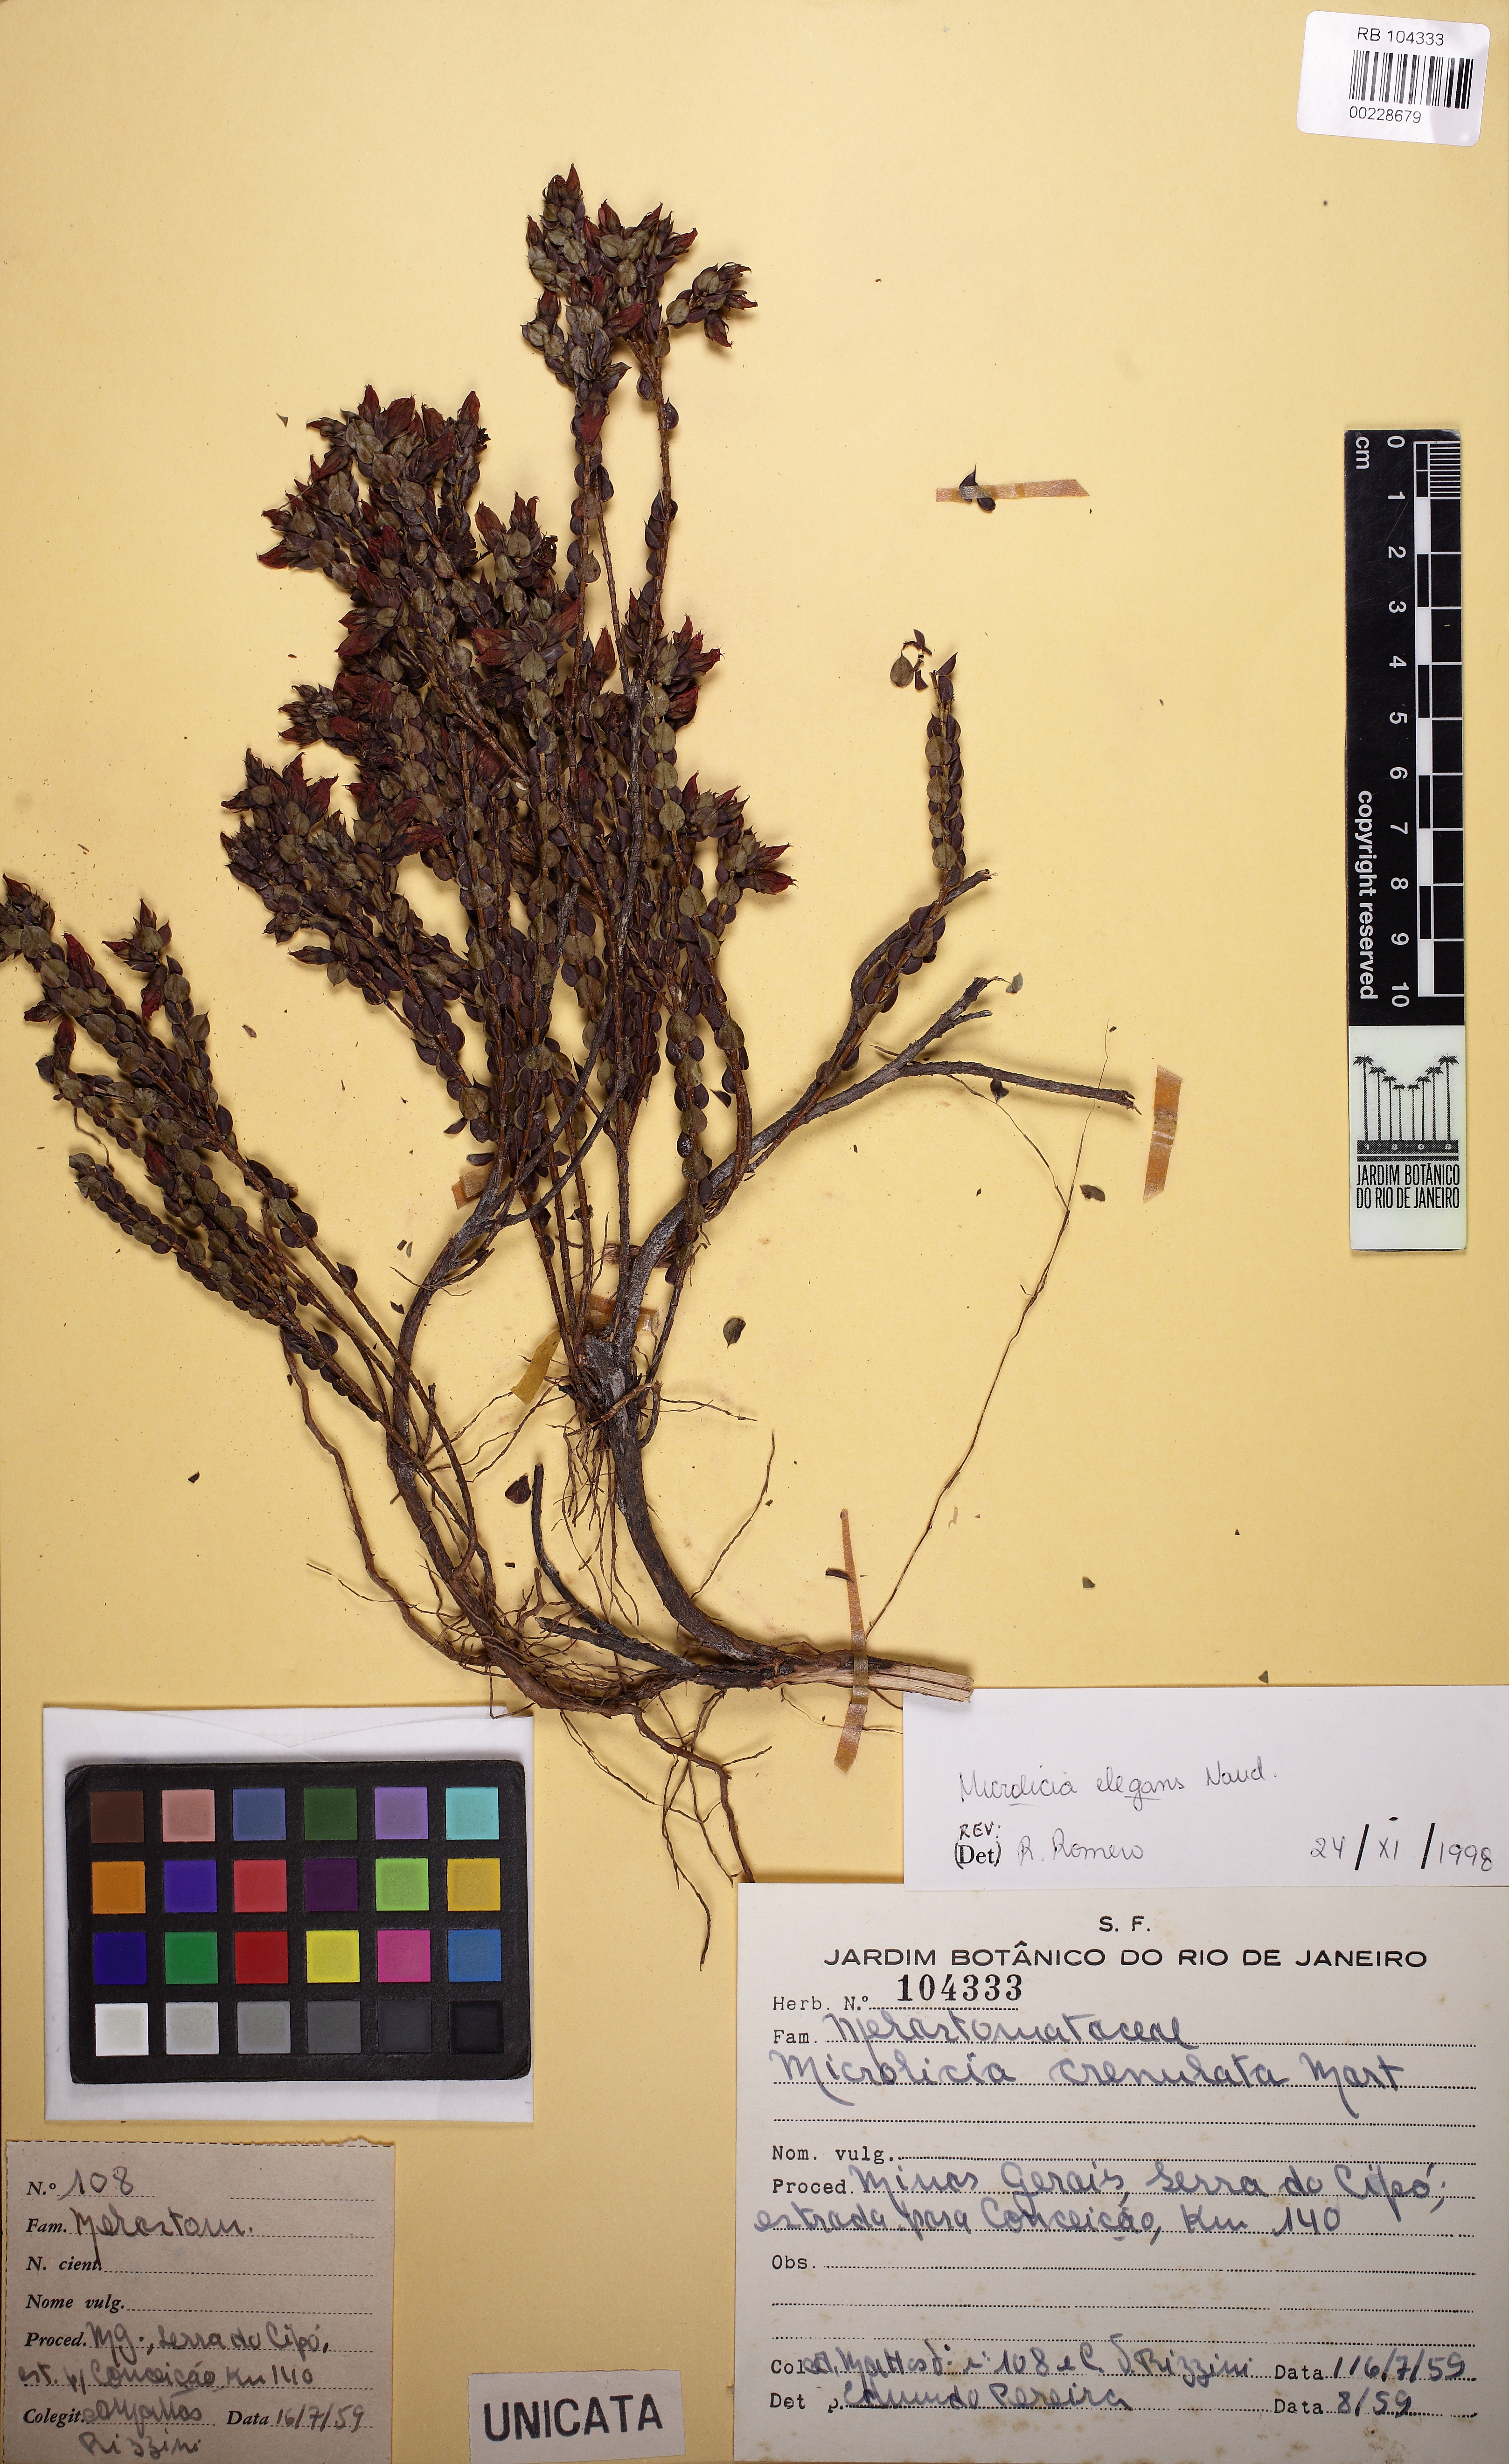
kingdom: Plantae
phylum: Tracheophyta
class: Magnoliopsida
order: Myrtales
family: Melastomataceae
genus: Microlicia
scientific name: Microlicia elegans
